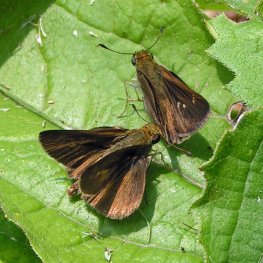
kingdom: Animalia
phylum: Arthropoda
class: Insecta
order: Lepidoptera
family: Hesperiidae
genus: Euphyes
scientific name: Euphyes vestris
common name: Dun Skipper
